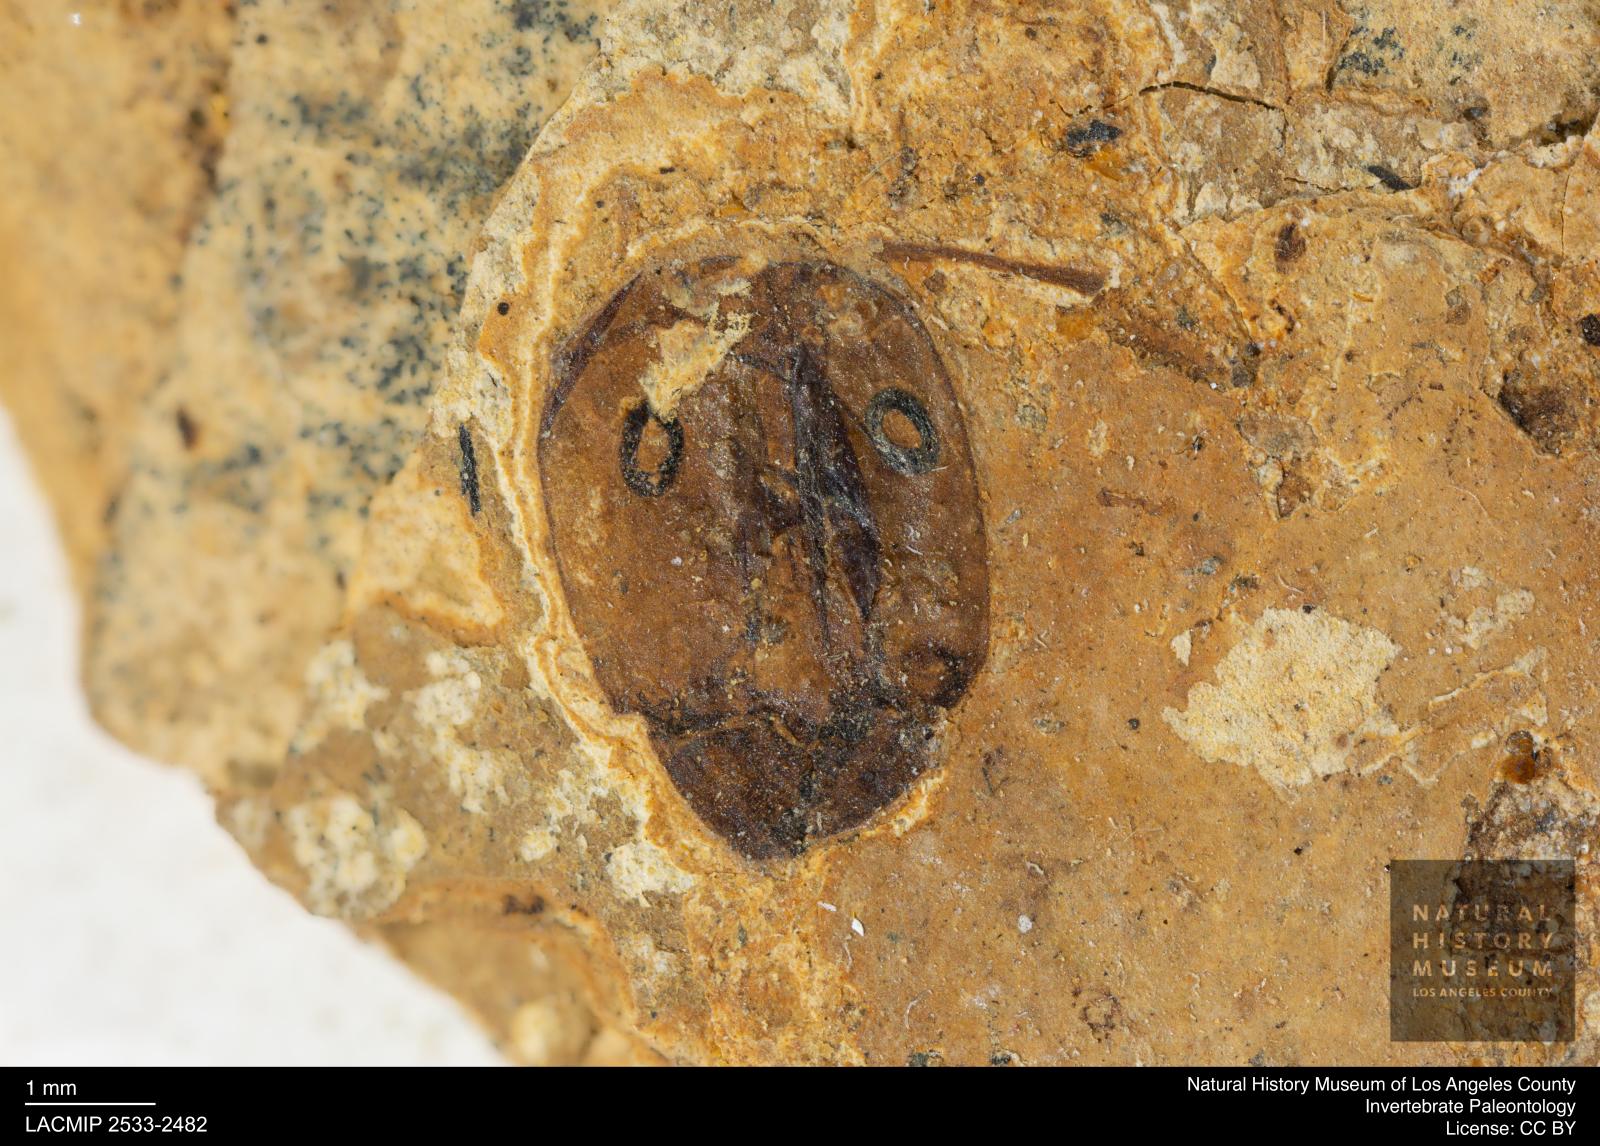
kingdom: Animalia
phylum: Arthropoda
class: Insecta
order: Hymenoptera
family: Formicidae
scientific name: Formicidae
